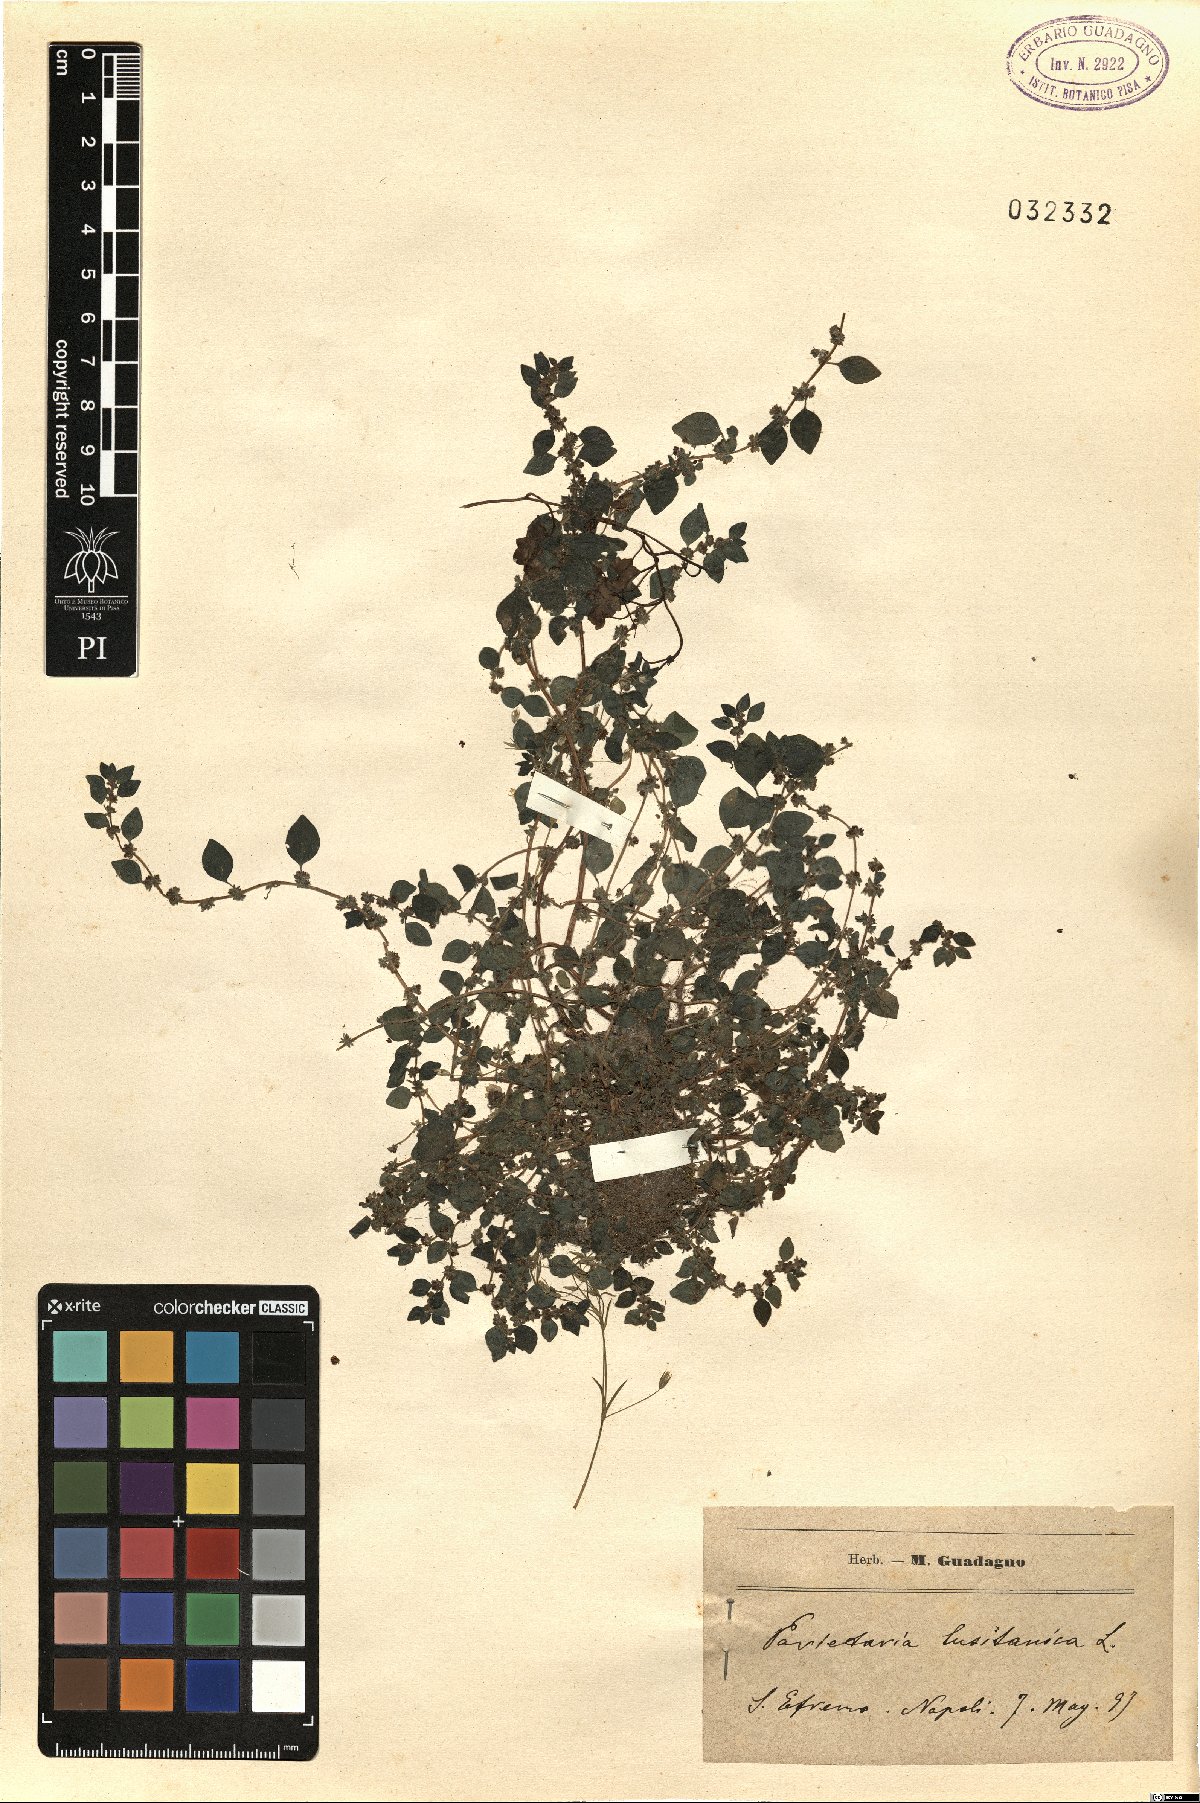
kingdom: Plantae
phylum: Tracheophyta
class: Magnoliopsida
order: Rosales
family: Urticaceae
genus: Parietaria
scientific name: Parietaria lusitanica
